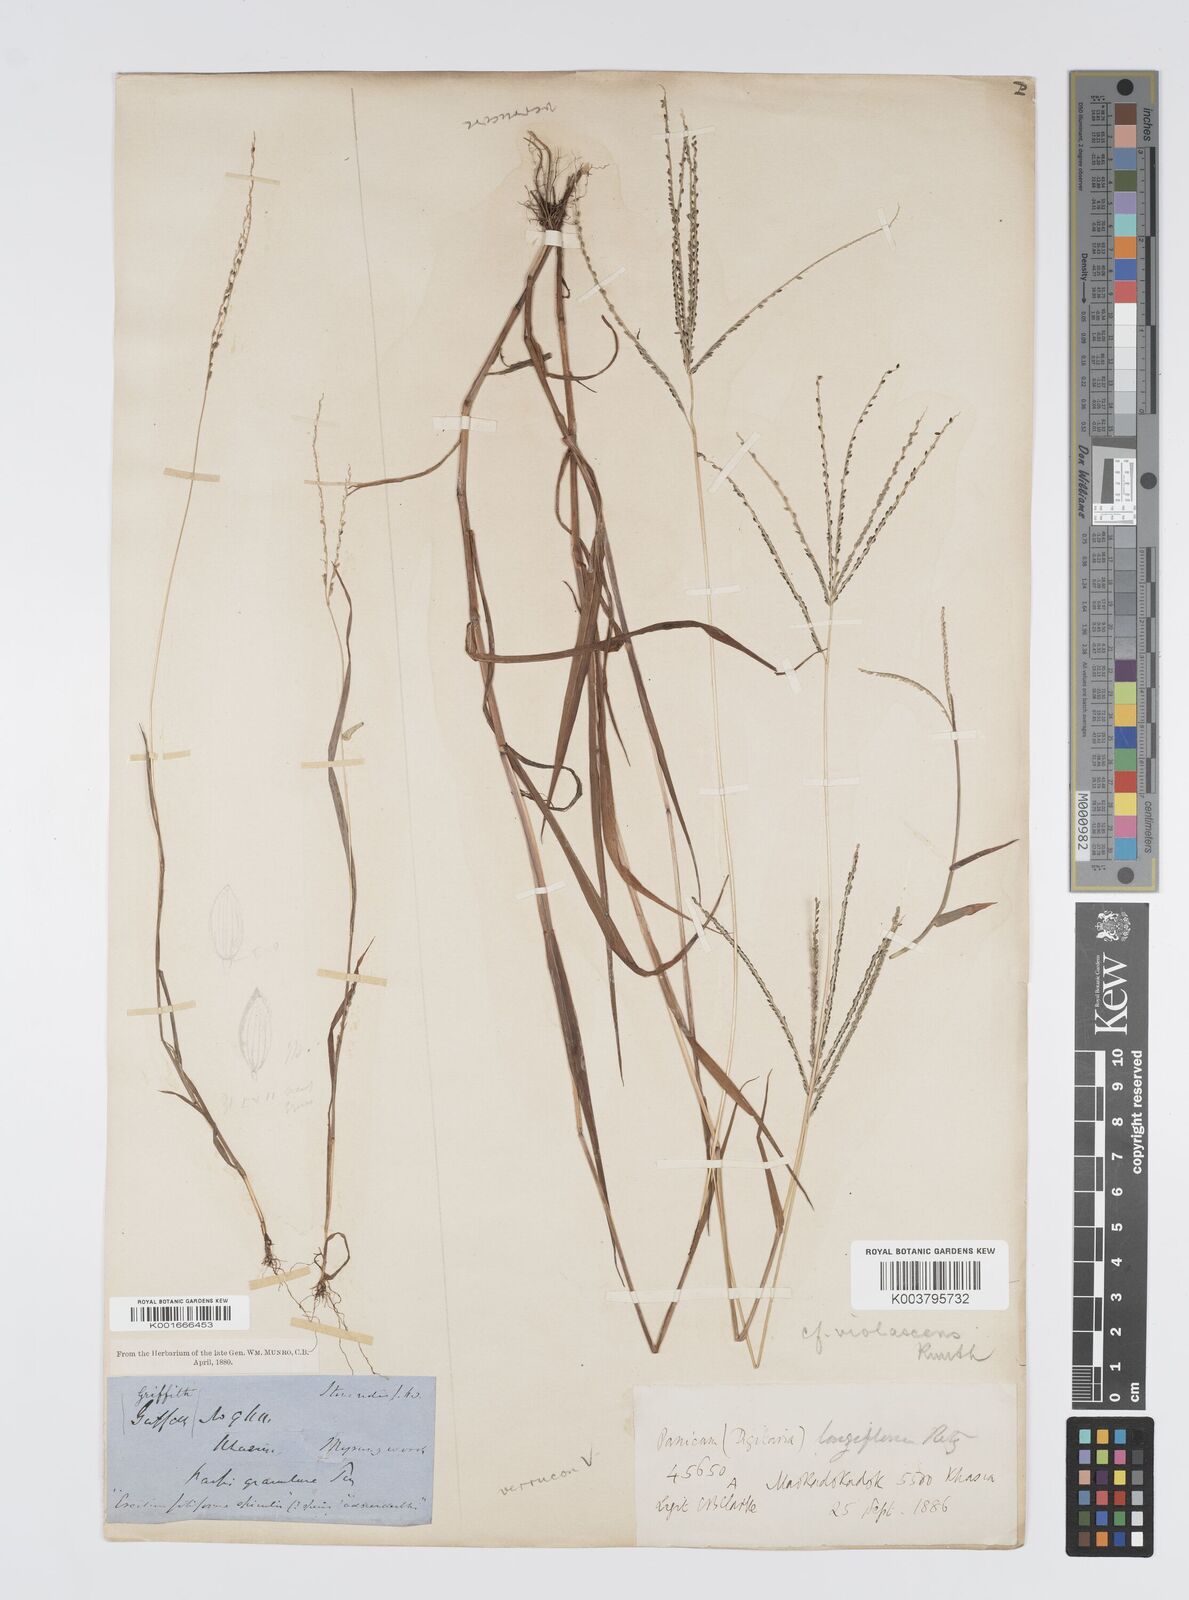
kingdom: Plantae
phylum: Tracheophyta
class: Liliopsida
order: Poales
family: Poaceae
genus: Digitaria
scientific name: Digitaria violascens
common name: Violet crabgrass
